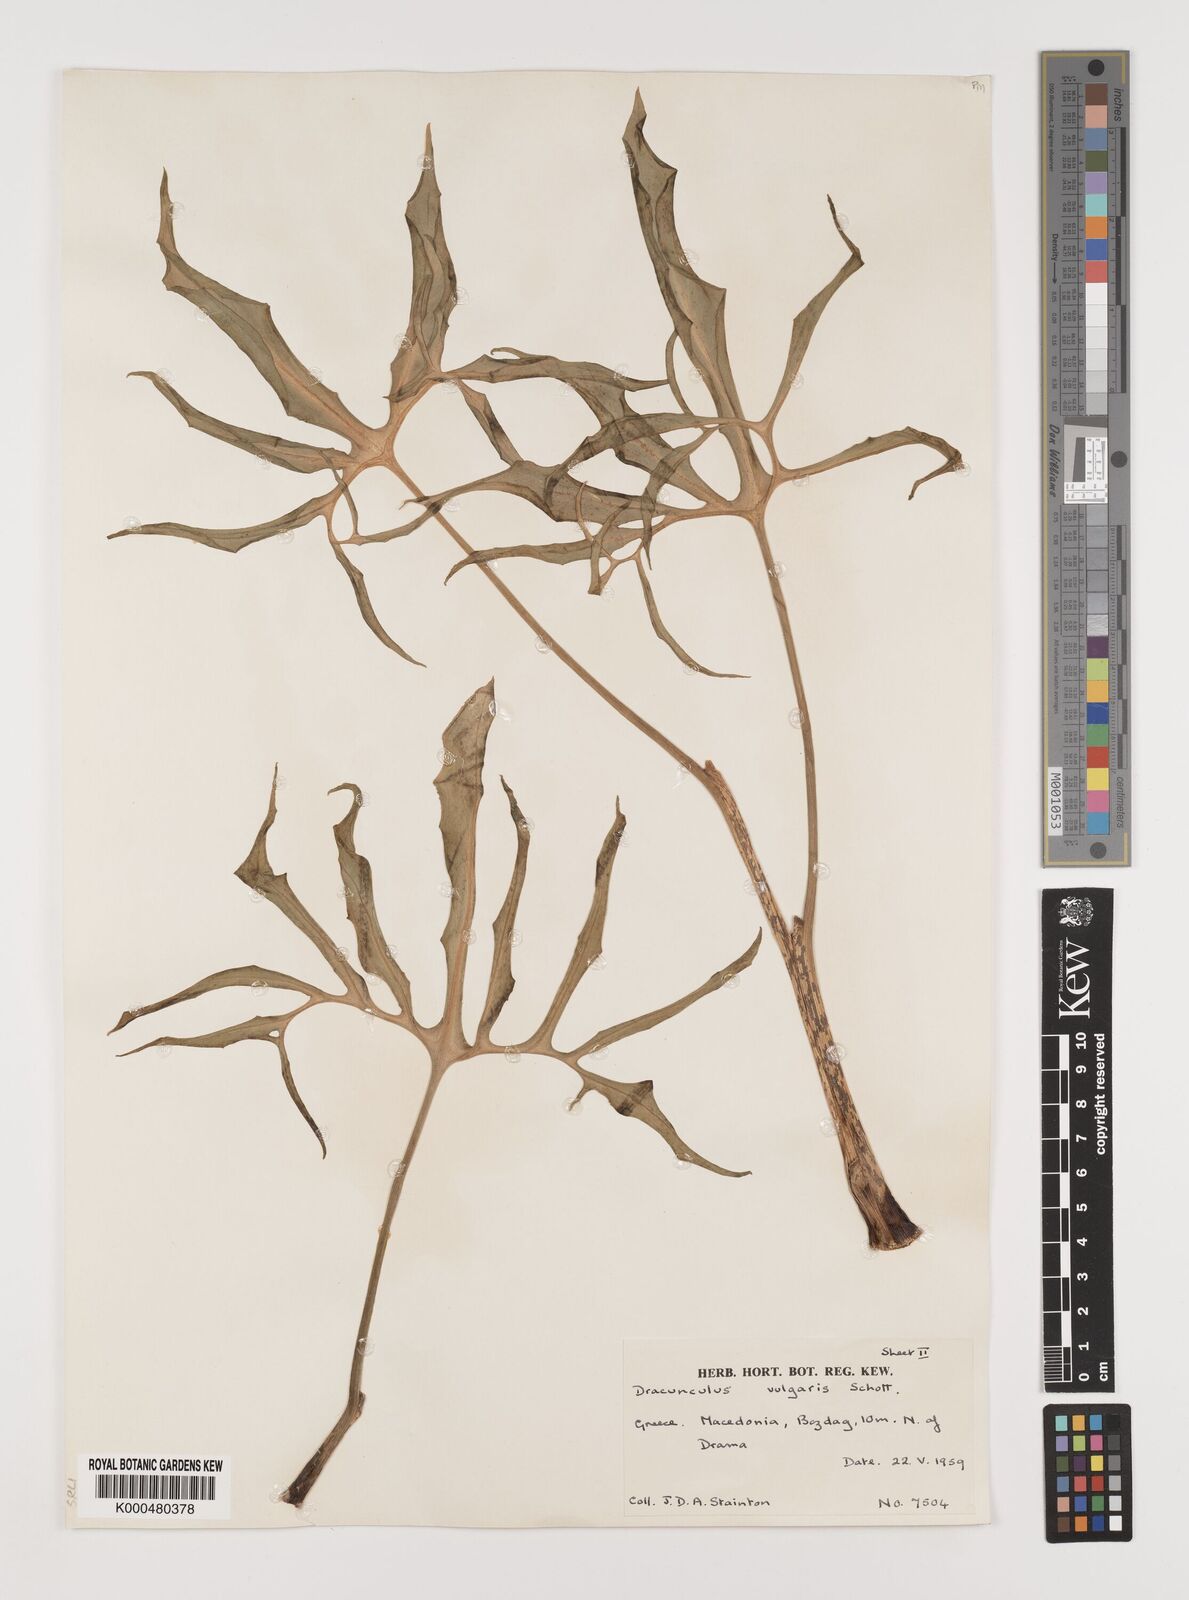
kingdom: Plantae
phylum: Tracheophyta
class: Liliopsida
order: Alismatales
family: Araceae
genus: Dracunculus
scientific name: Dracunculus vulgaris
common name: Dragon arum
